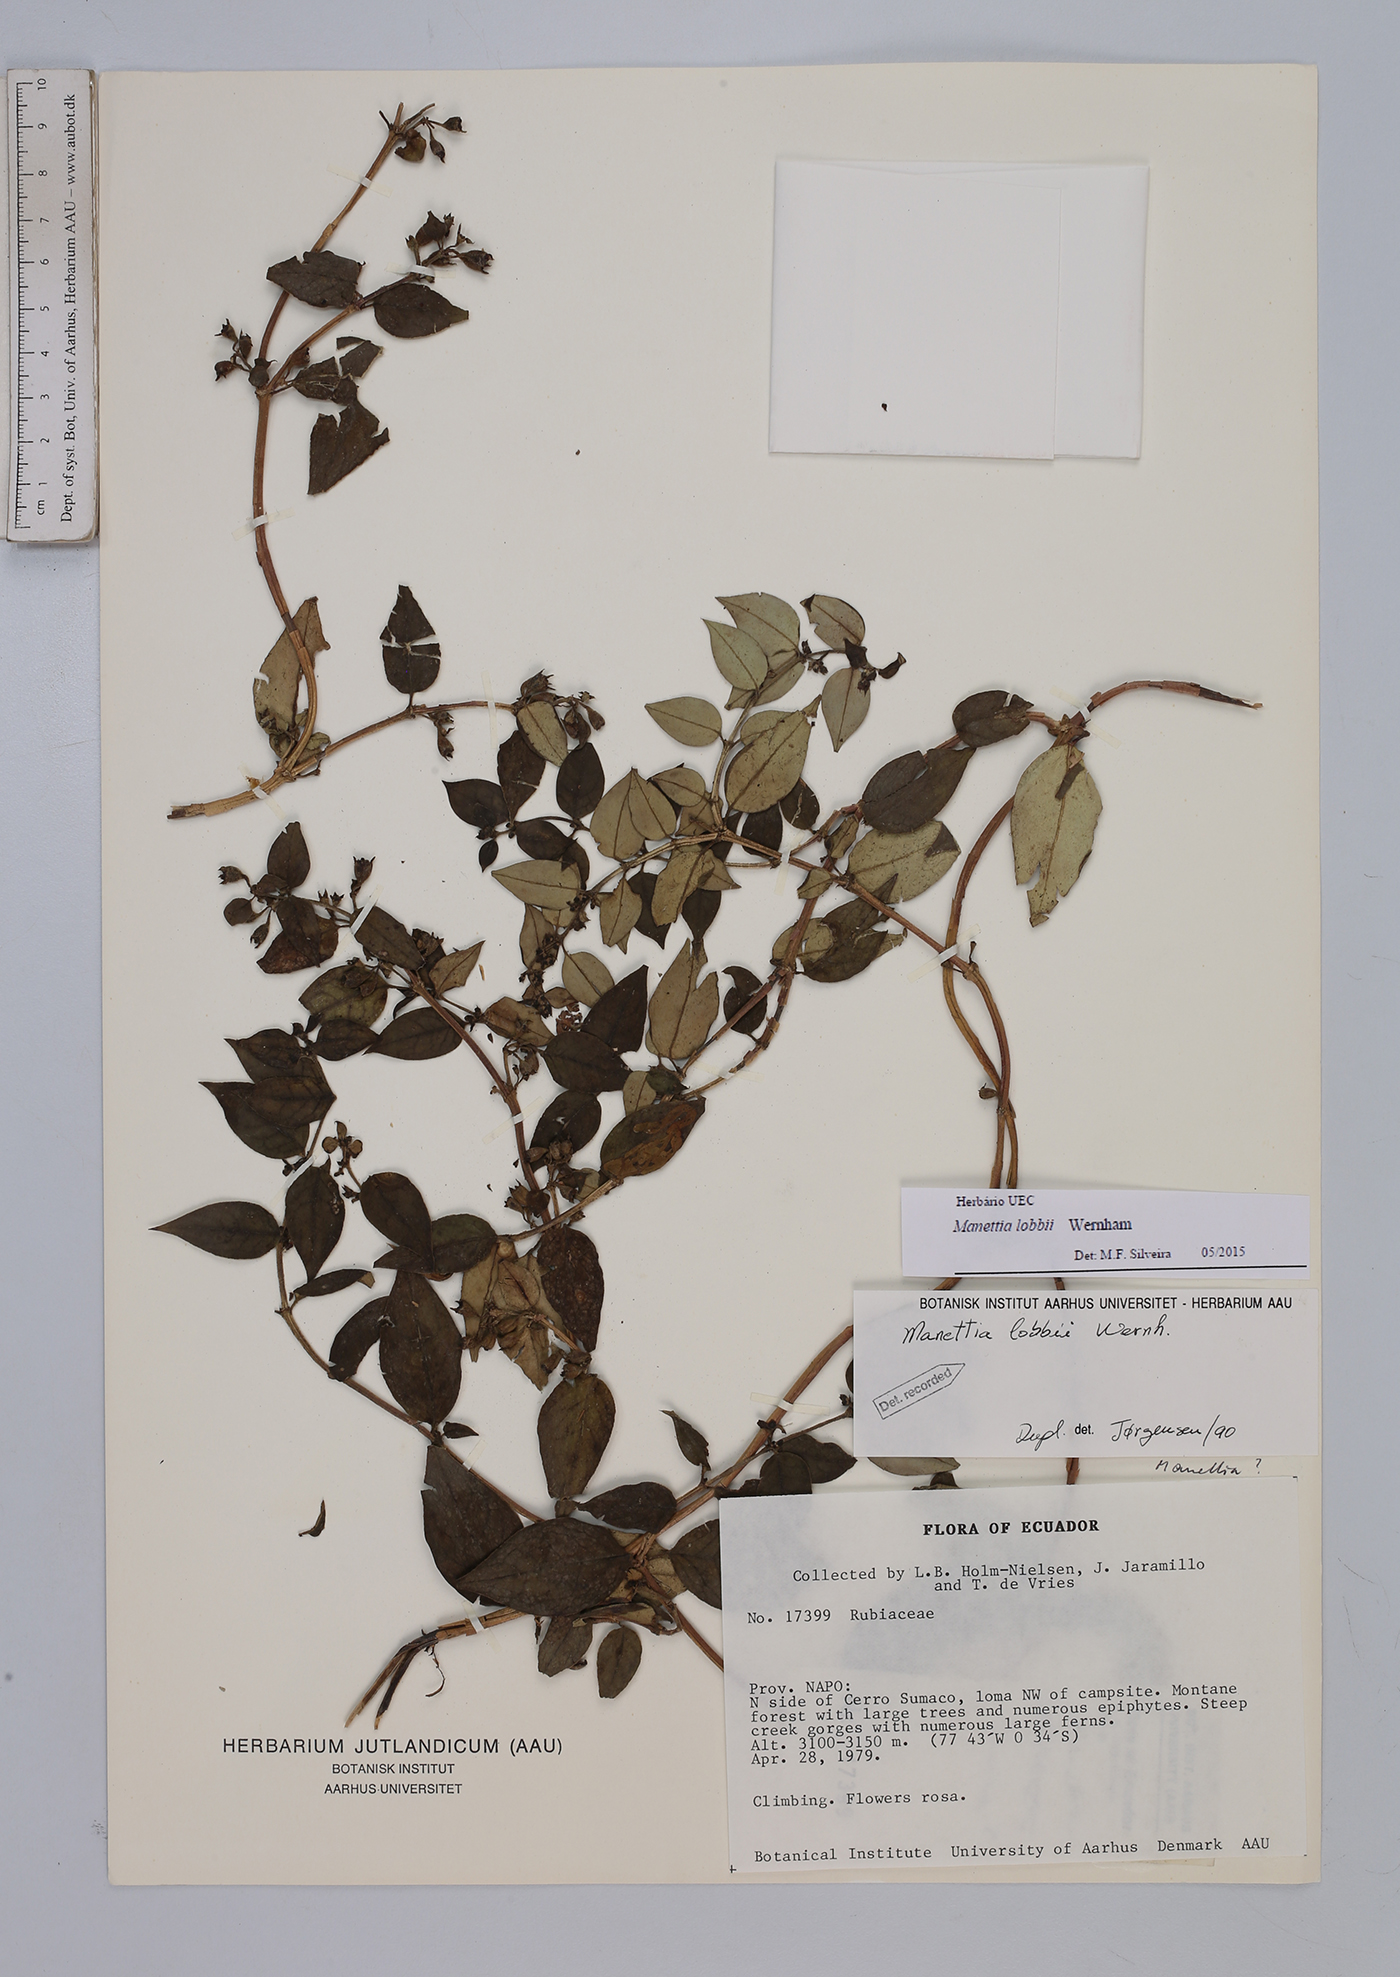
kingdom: Plantae
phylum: Tracheophyta
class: Magnoliopsida
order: Gentianales
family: Rubiaceae
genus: Manettia
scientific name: Manettia lobbii
